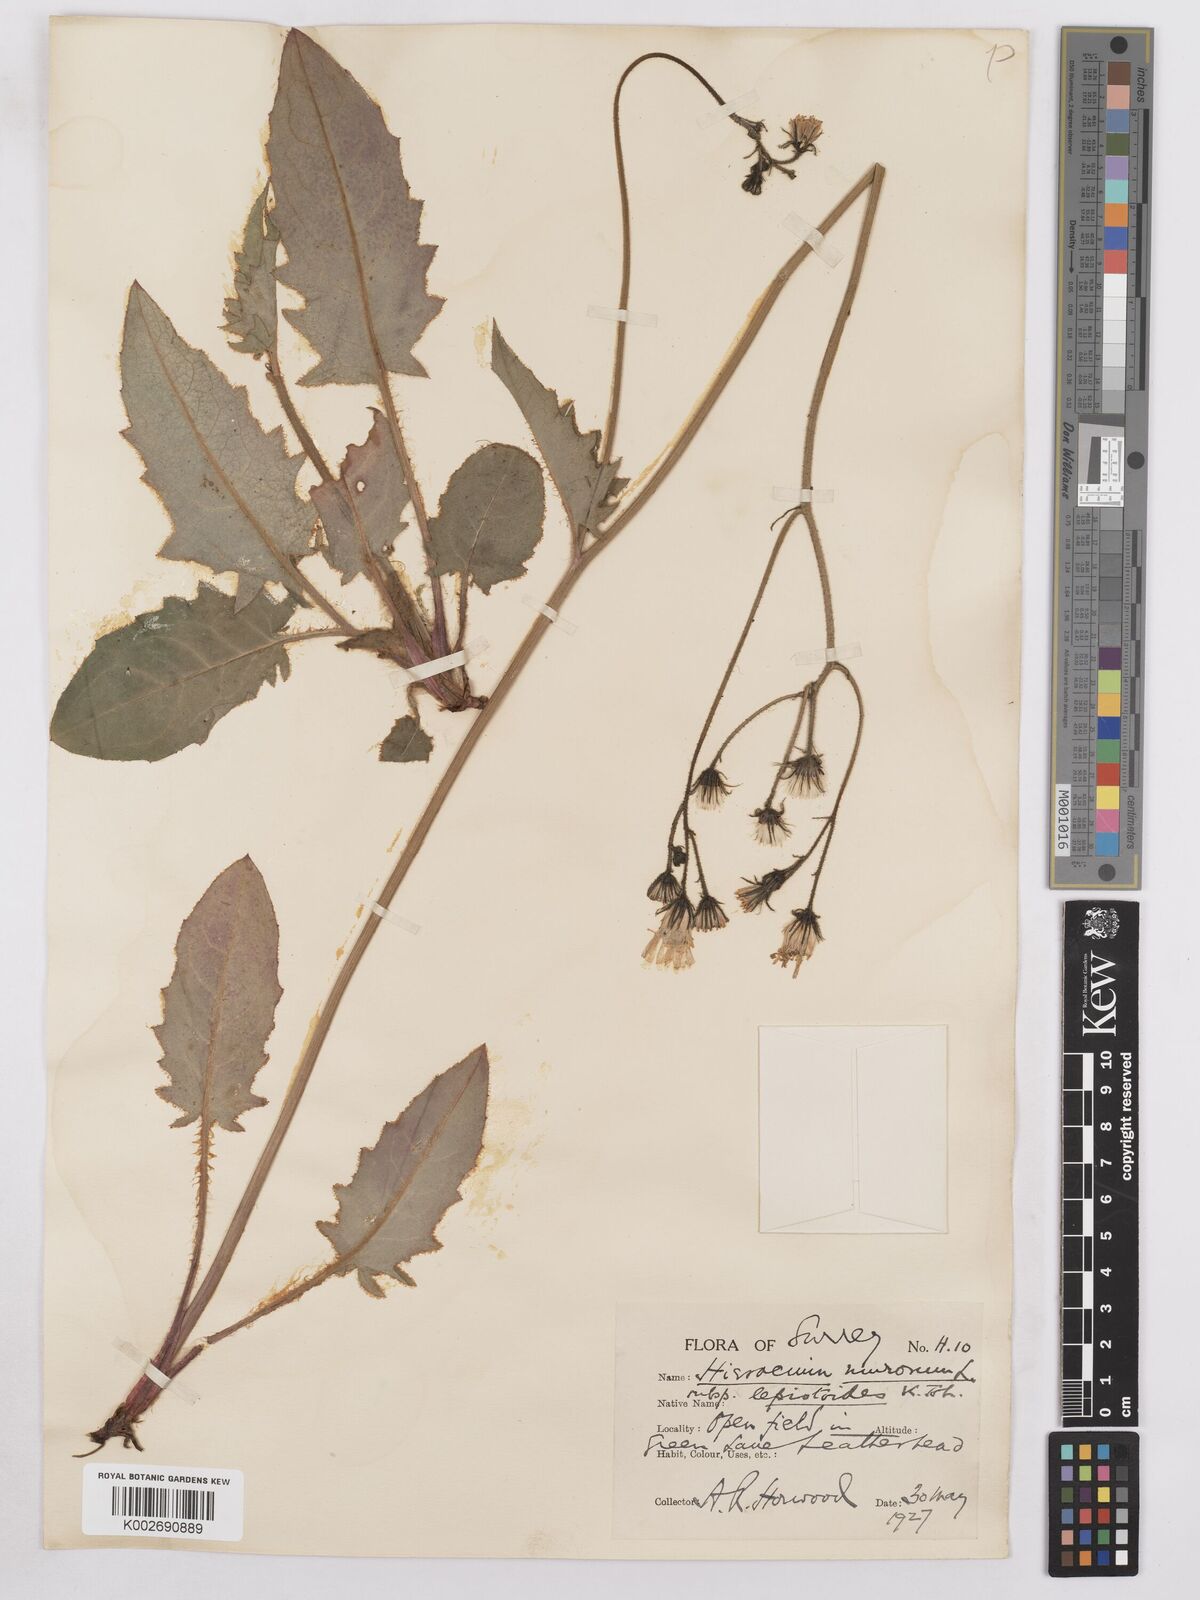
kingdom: Plantae
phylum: Tracheophyta
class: Magnoliopsida
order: Asterales
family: Asteraceae
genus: Hieracium
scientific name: Hieracium murorum
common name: Wall hawkweed
